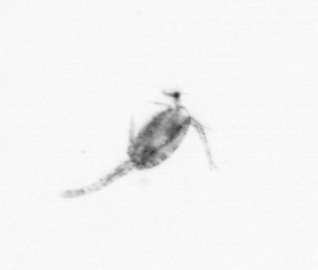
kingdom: Animalia
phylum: Arthropoda
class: Copepoda
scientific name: Copepoda
